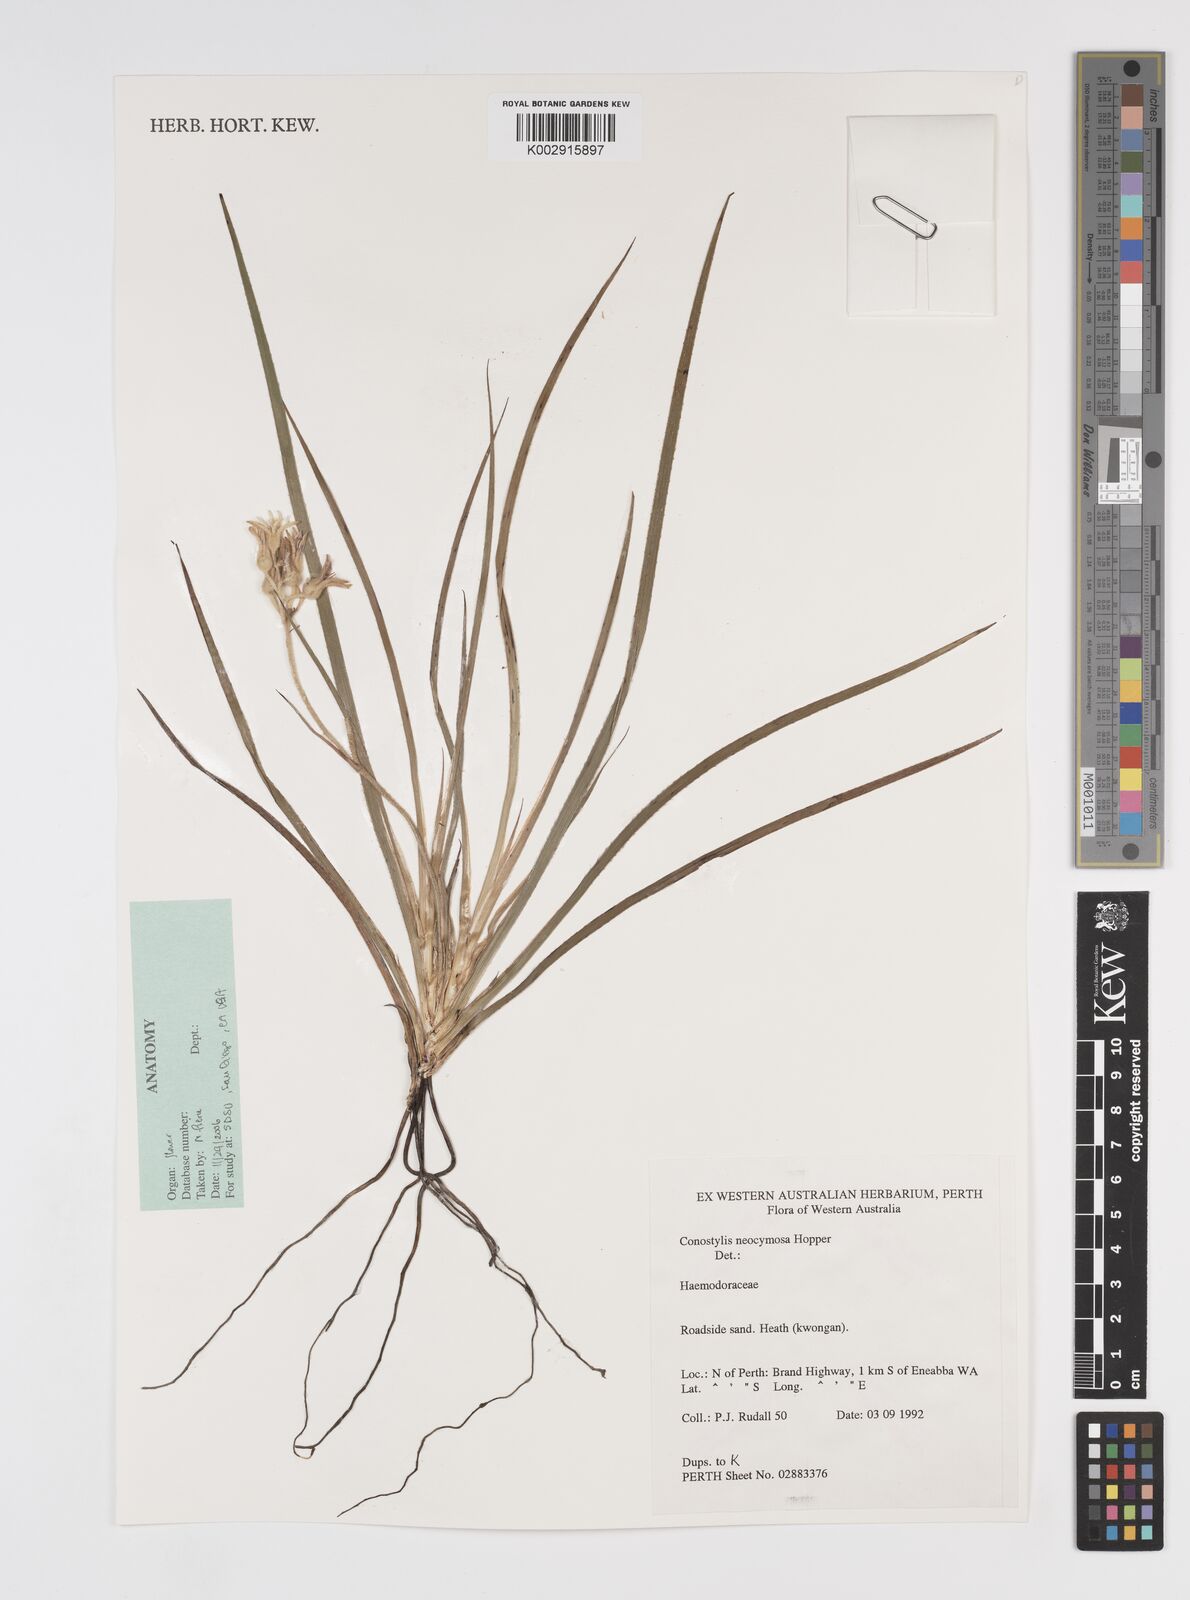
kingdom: Plantae
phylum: Tracheophyta
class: Liliopsida
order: Commelinales
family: Haemodoraceae
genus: Conostylis
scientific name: Conostylis neocymosa
